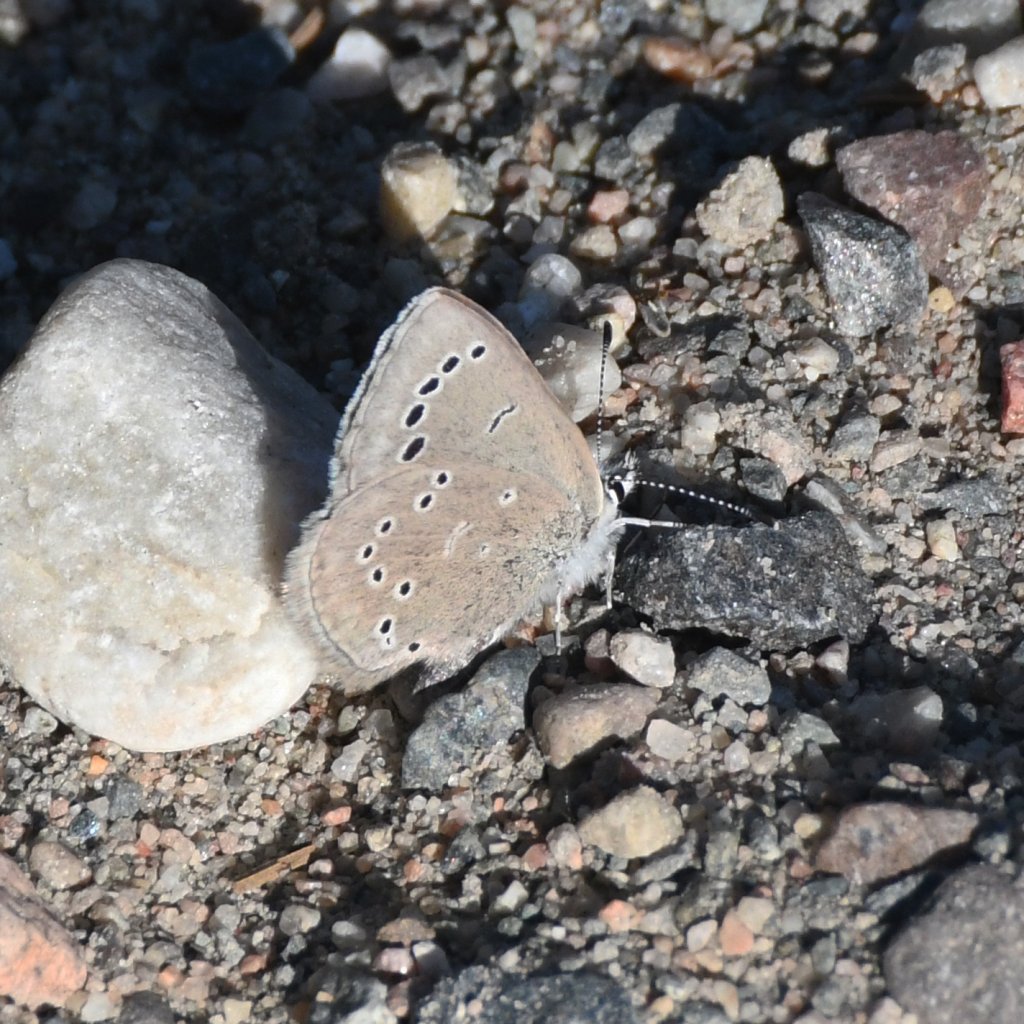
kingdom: Animalia
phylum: Arthropoda
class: Insecta
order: Lepidoptera
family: Lycaenidae
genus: Glaucopsyche
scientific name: Glaucopsyche lygdamus
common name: Silvery Blue
